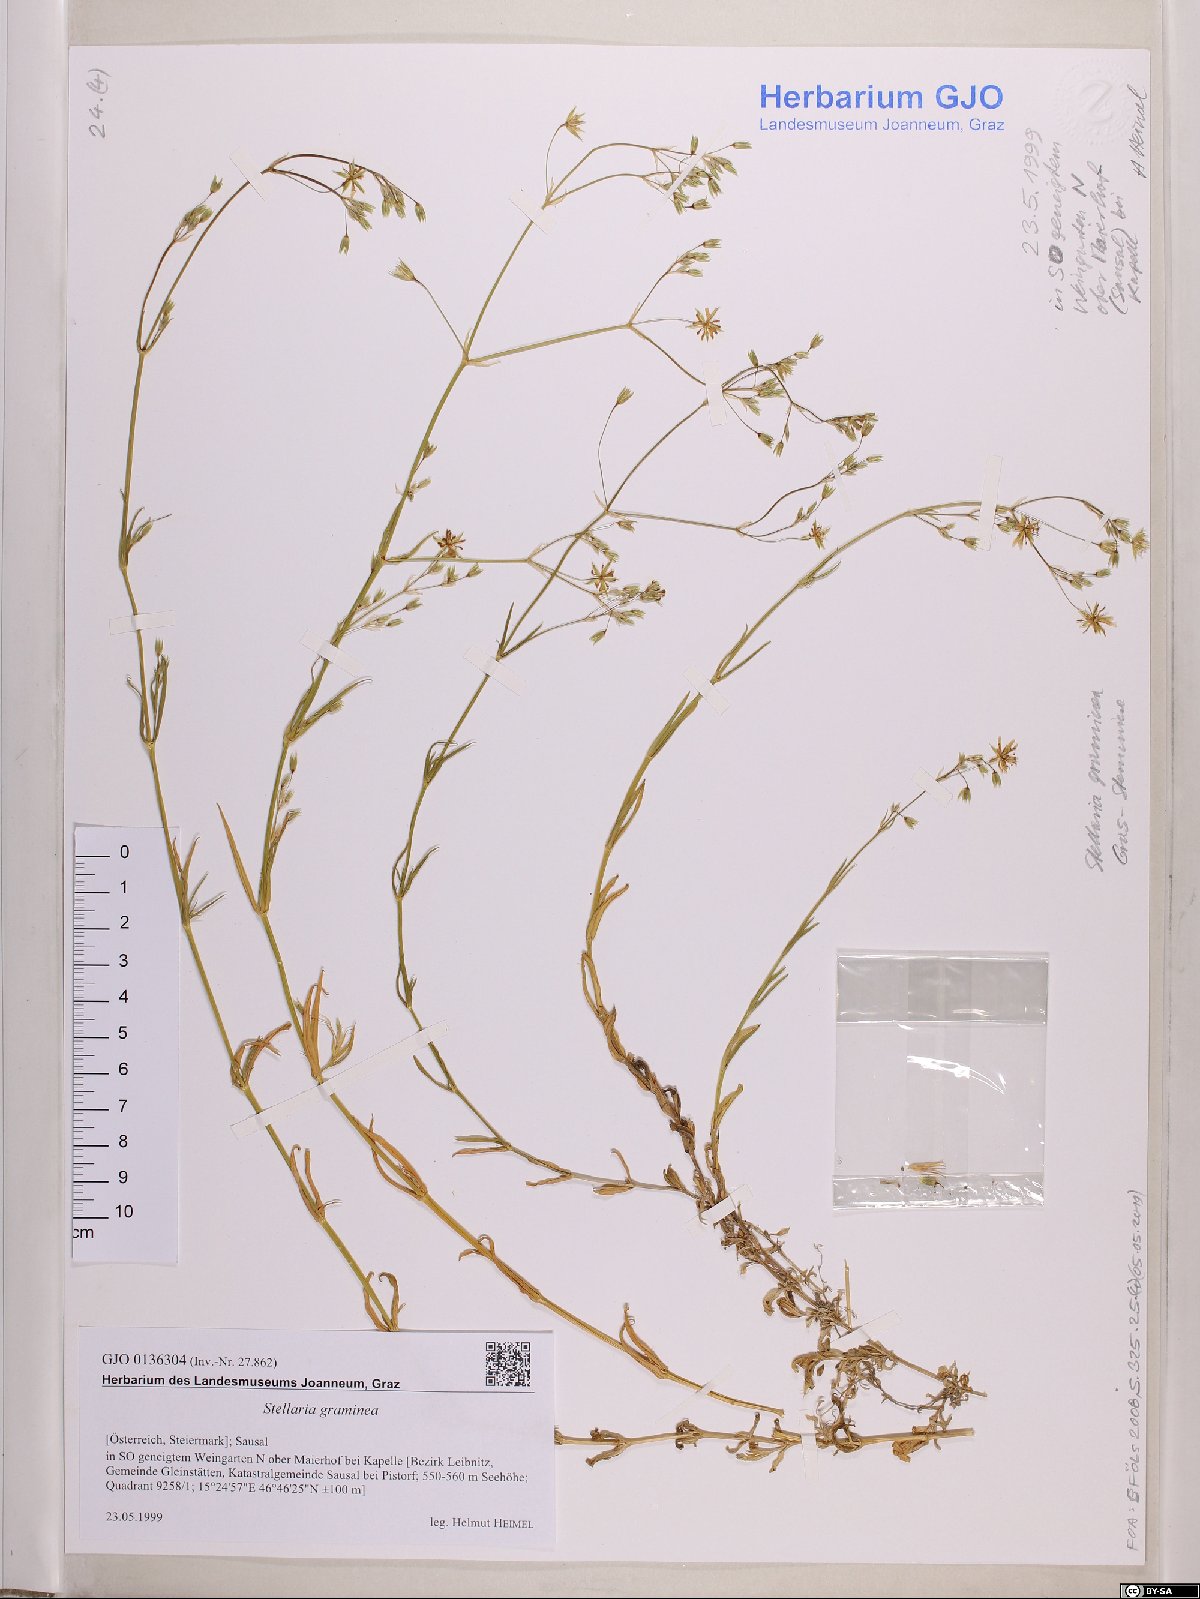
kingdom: Plantae
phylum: Tracheophyta
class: Magnoliopsida
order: Caryophyllales
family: Caryophyllaceae
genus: Stellaria
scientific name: Stellaria graminea
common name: Grass-like starwort
